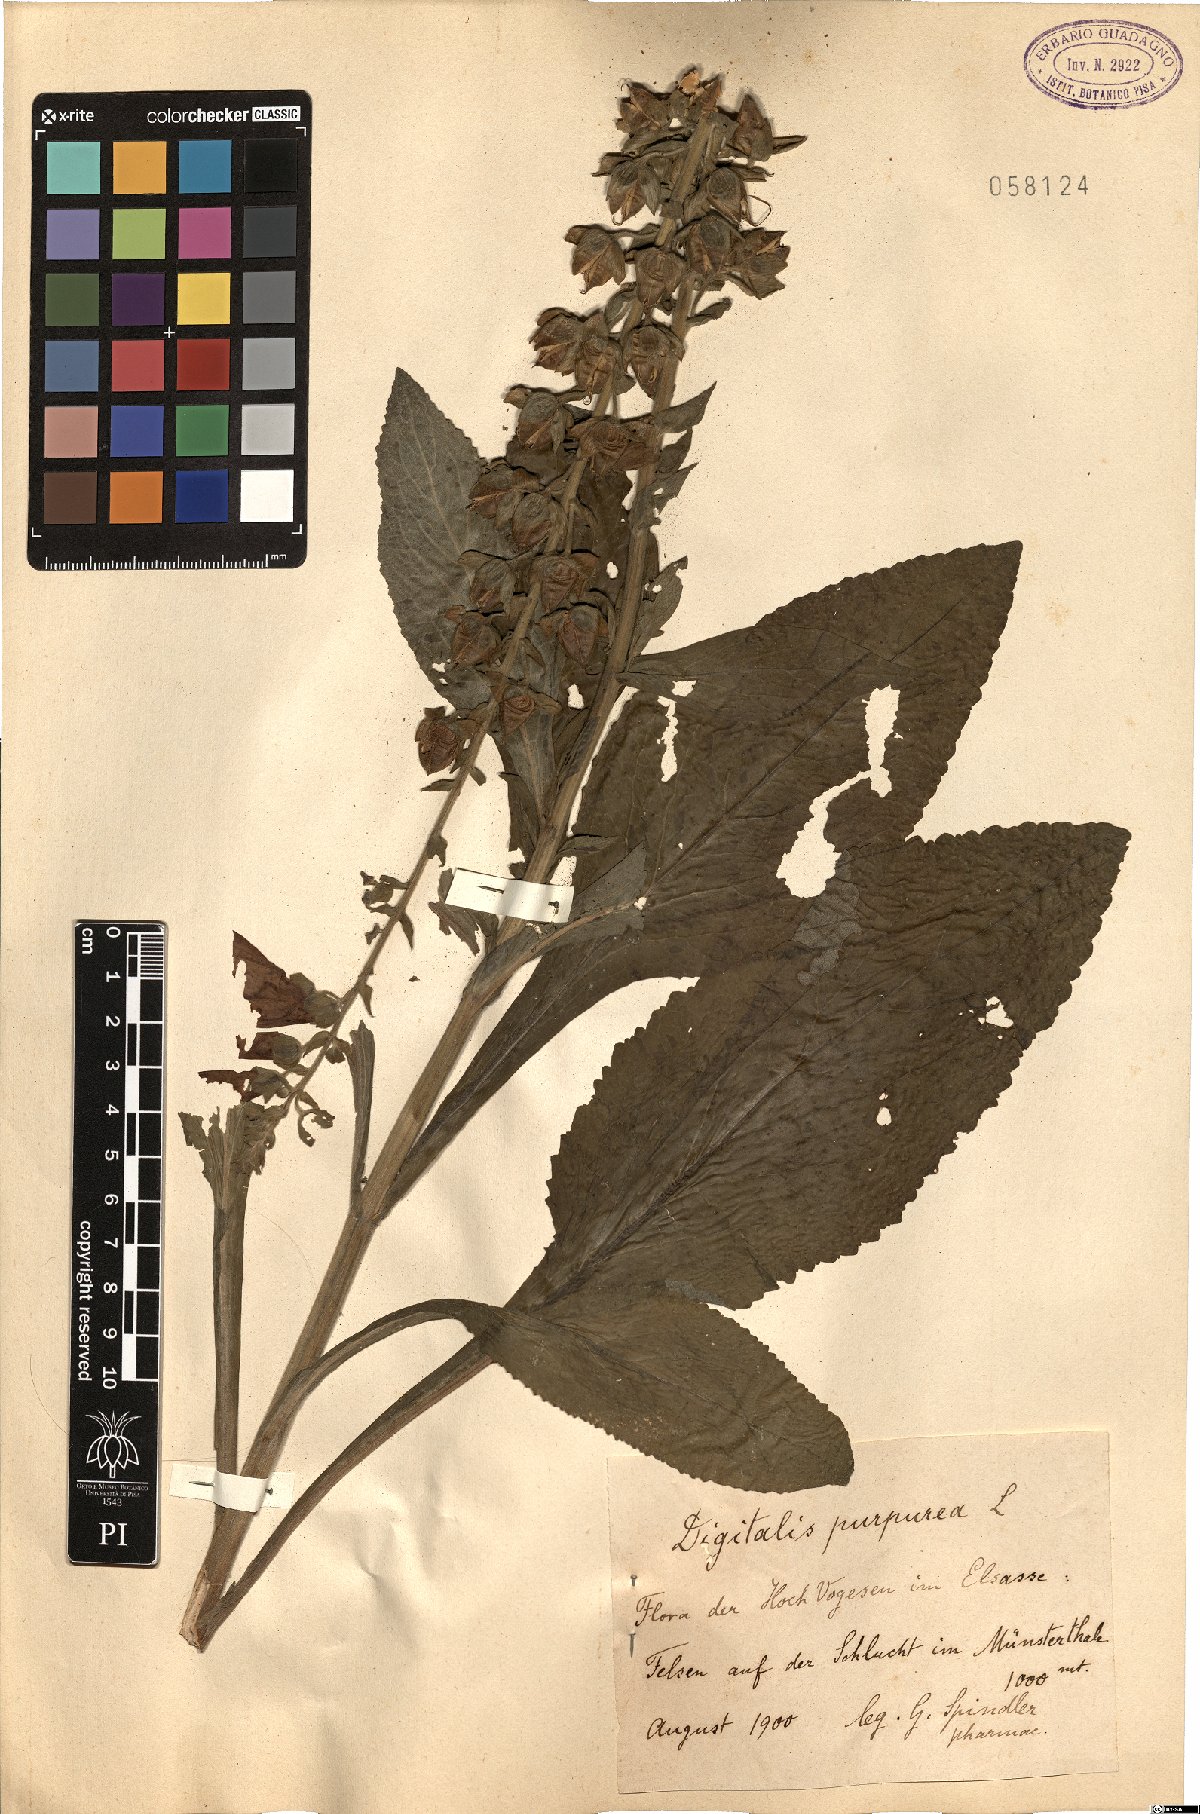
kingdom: Plantae
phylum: Tracheophyta
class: Magnoliopsida
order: Lamiales
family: Plantaginaceae
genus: Digitalis
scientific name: Digitalis purpurea
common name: Foxglove
